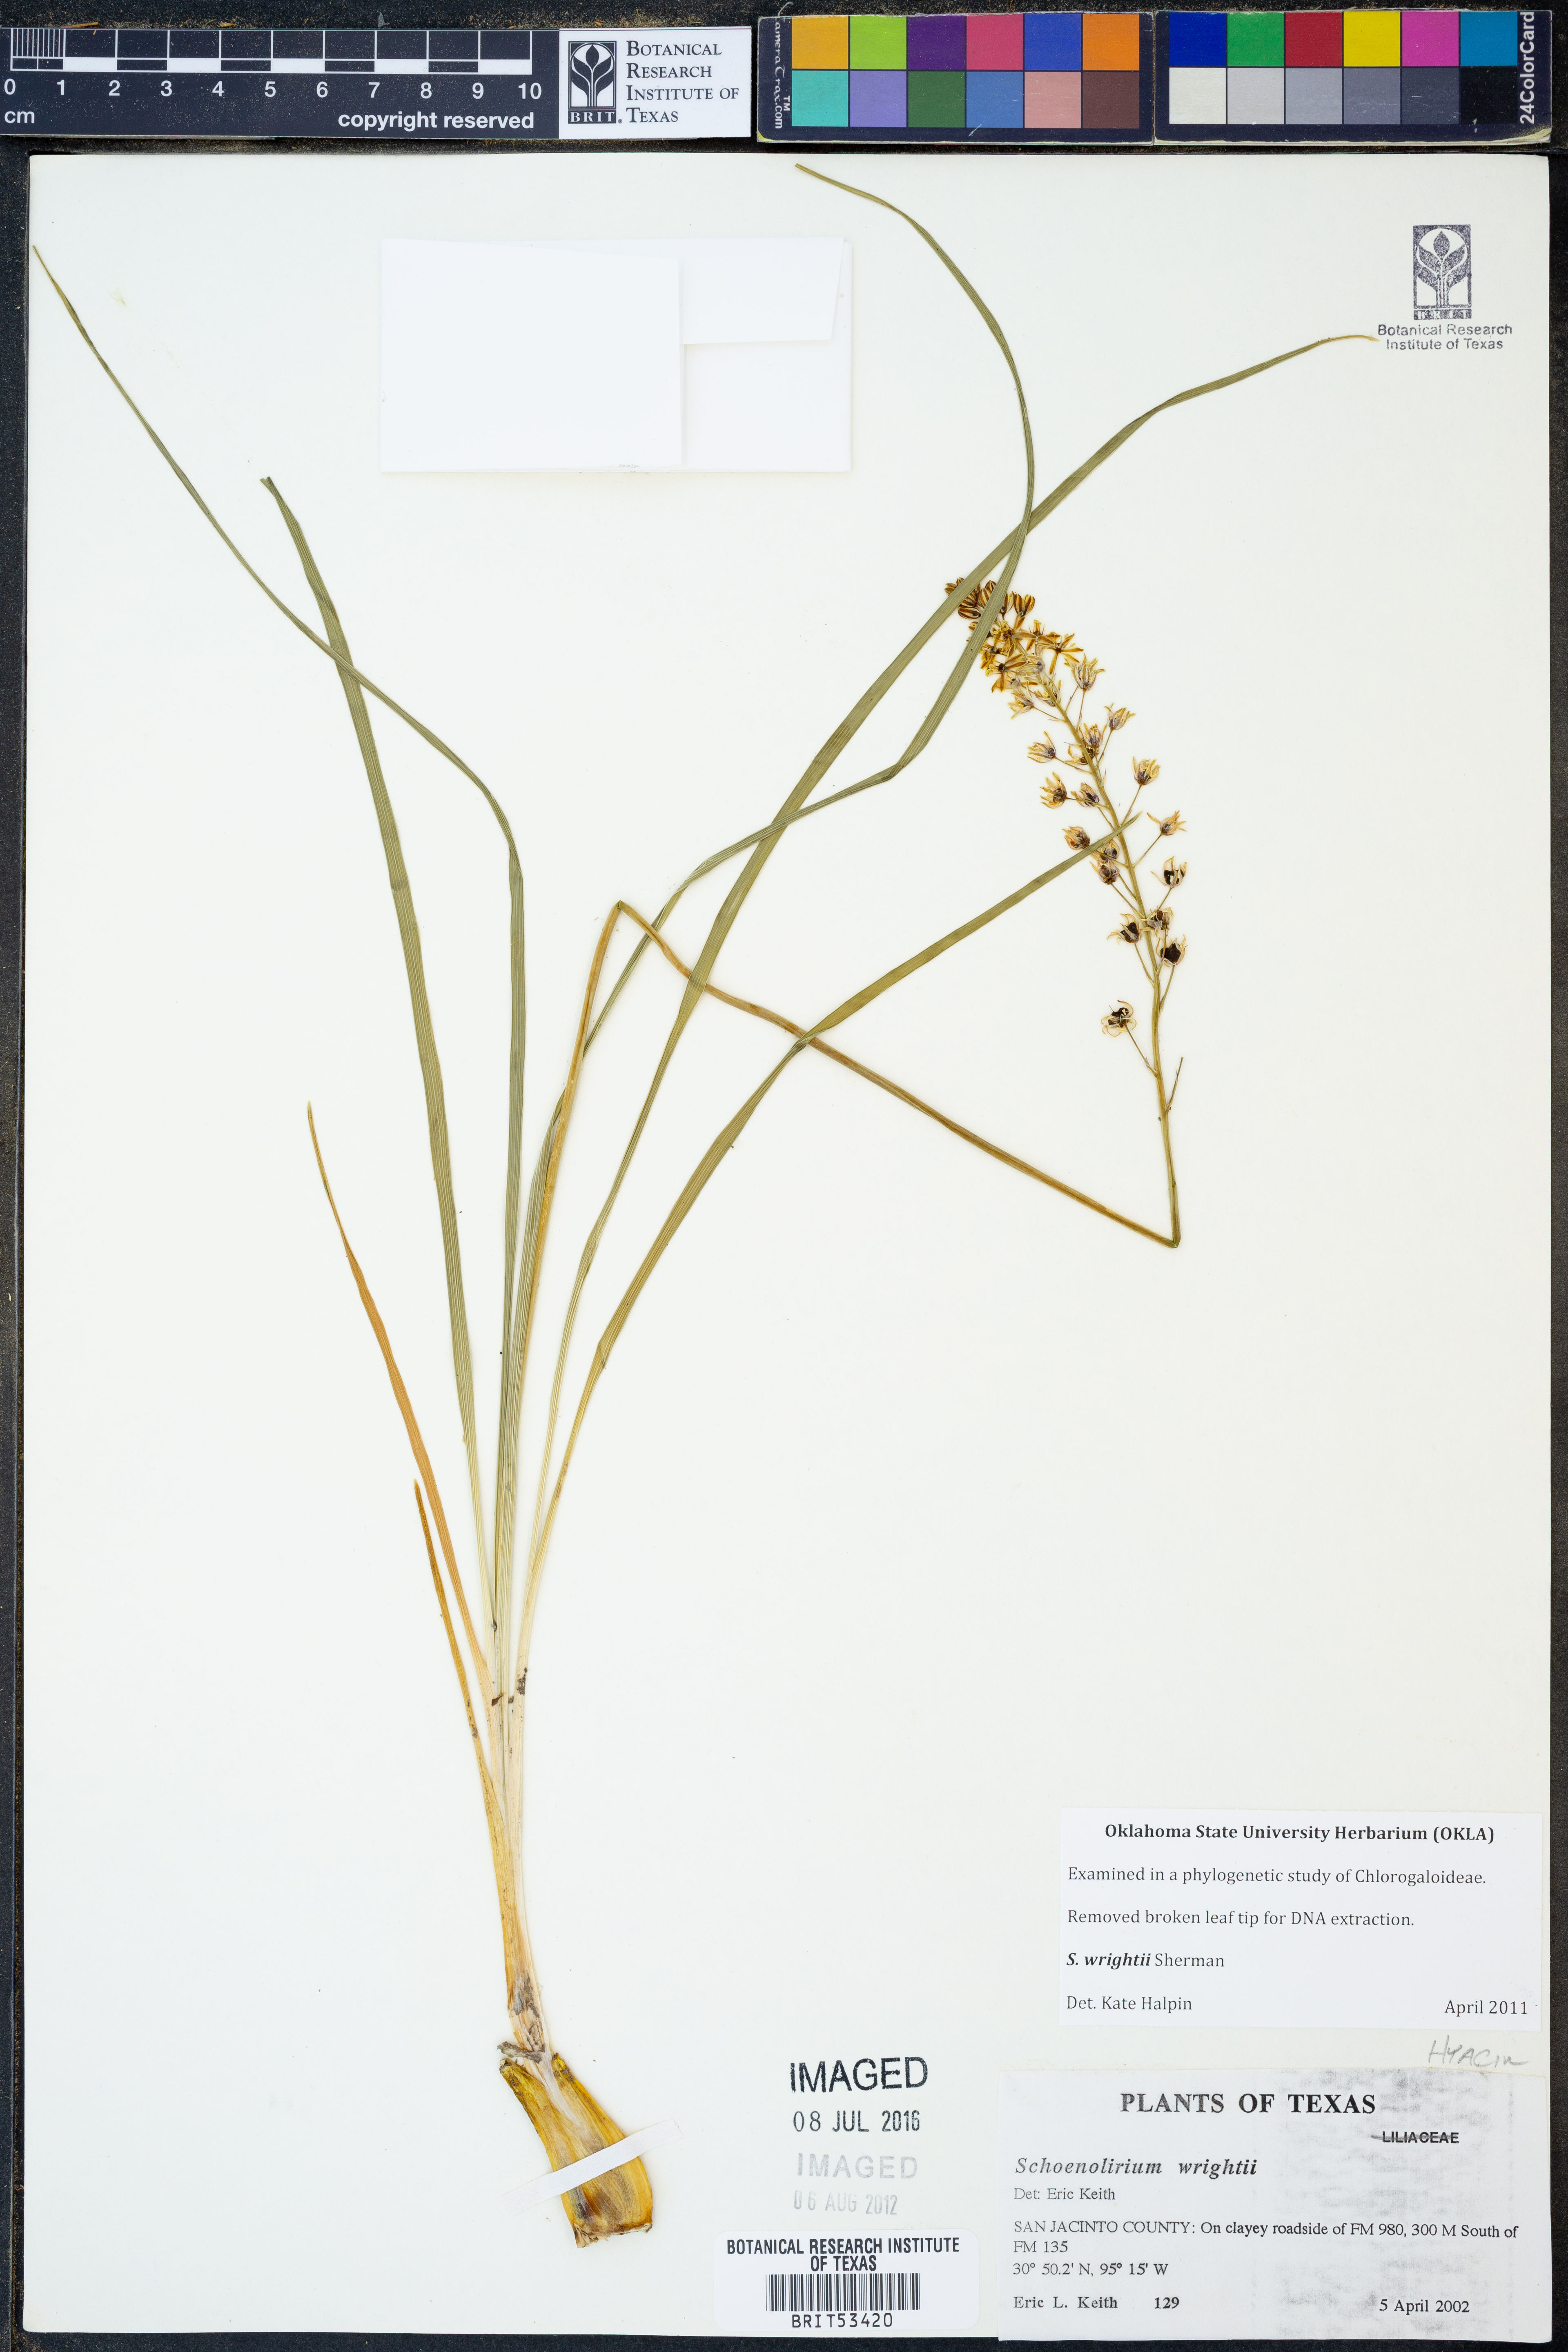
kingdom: Plantae
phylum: Tracheophyta
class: Liliopsida
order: Asparagales
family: Asparagaceae
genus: Schoenolirion
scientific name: Schoenolirion wrightii
